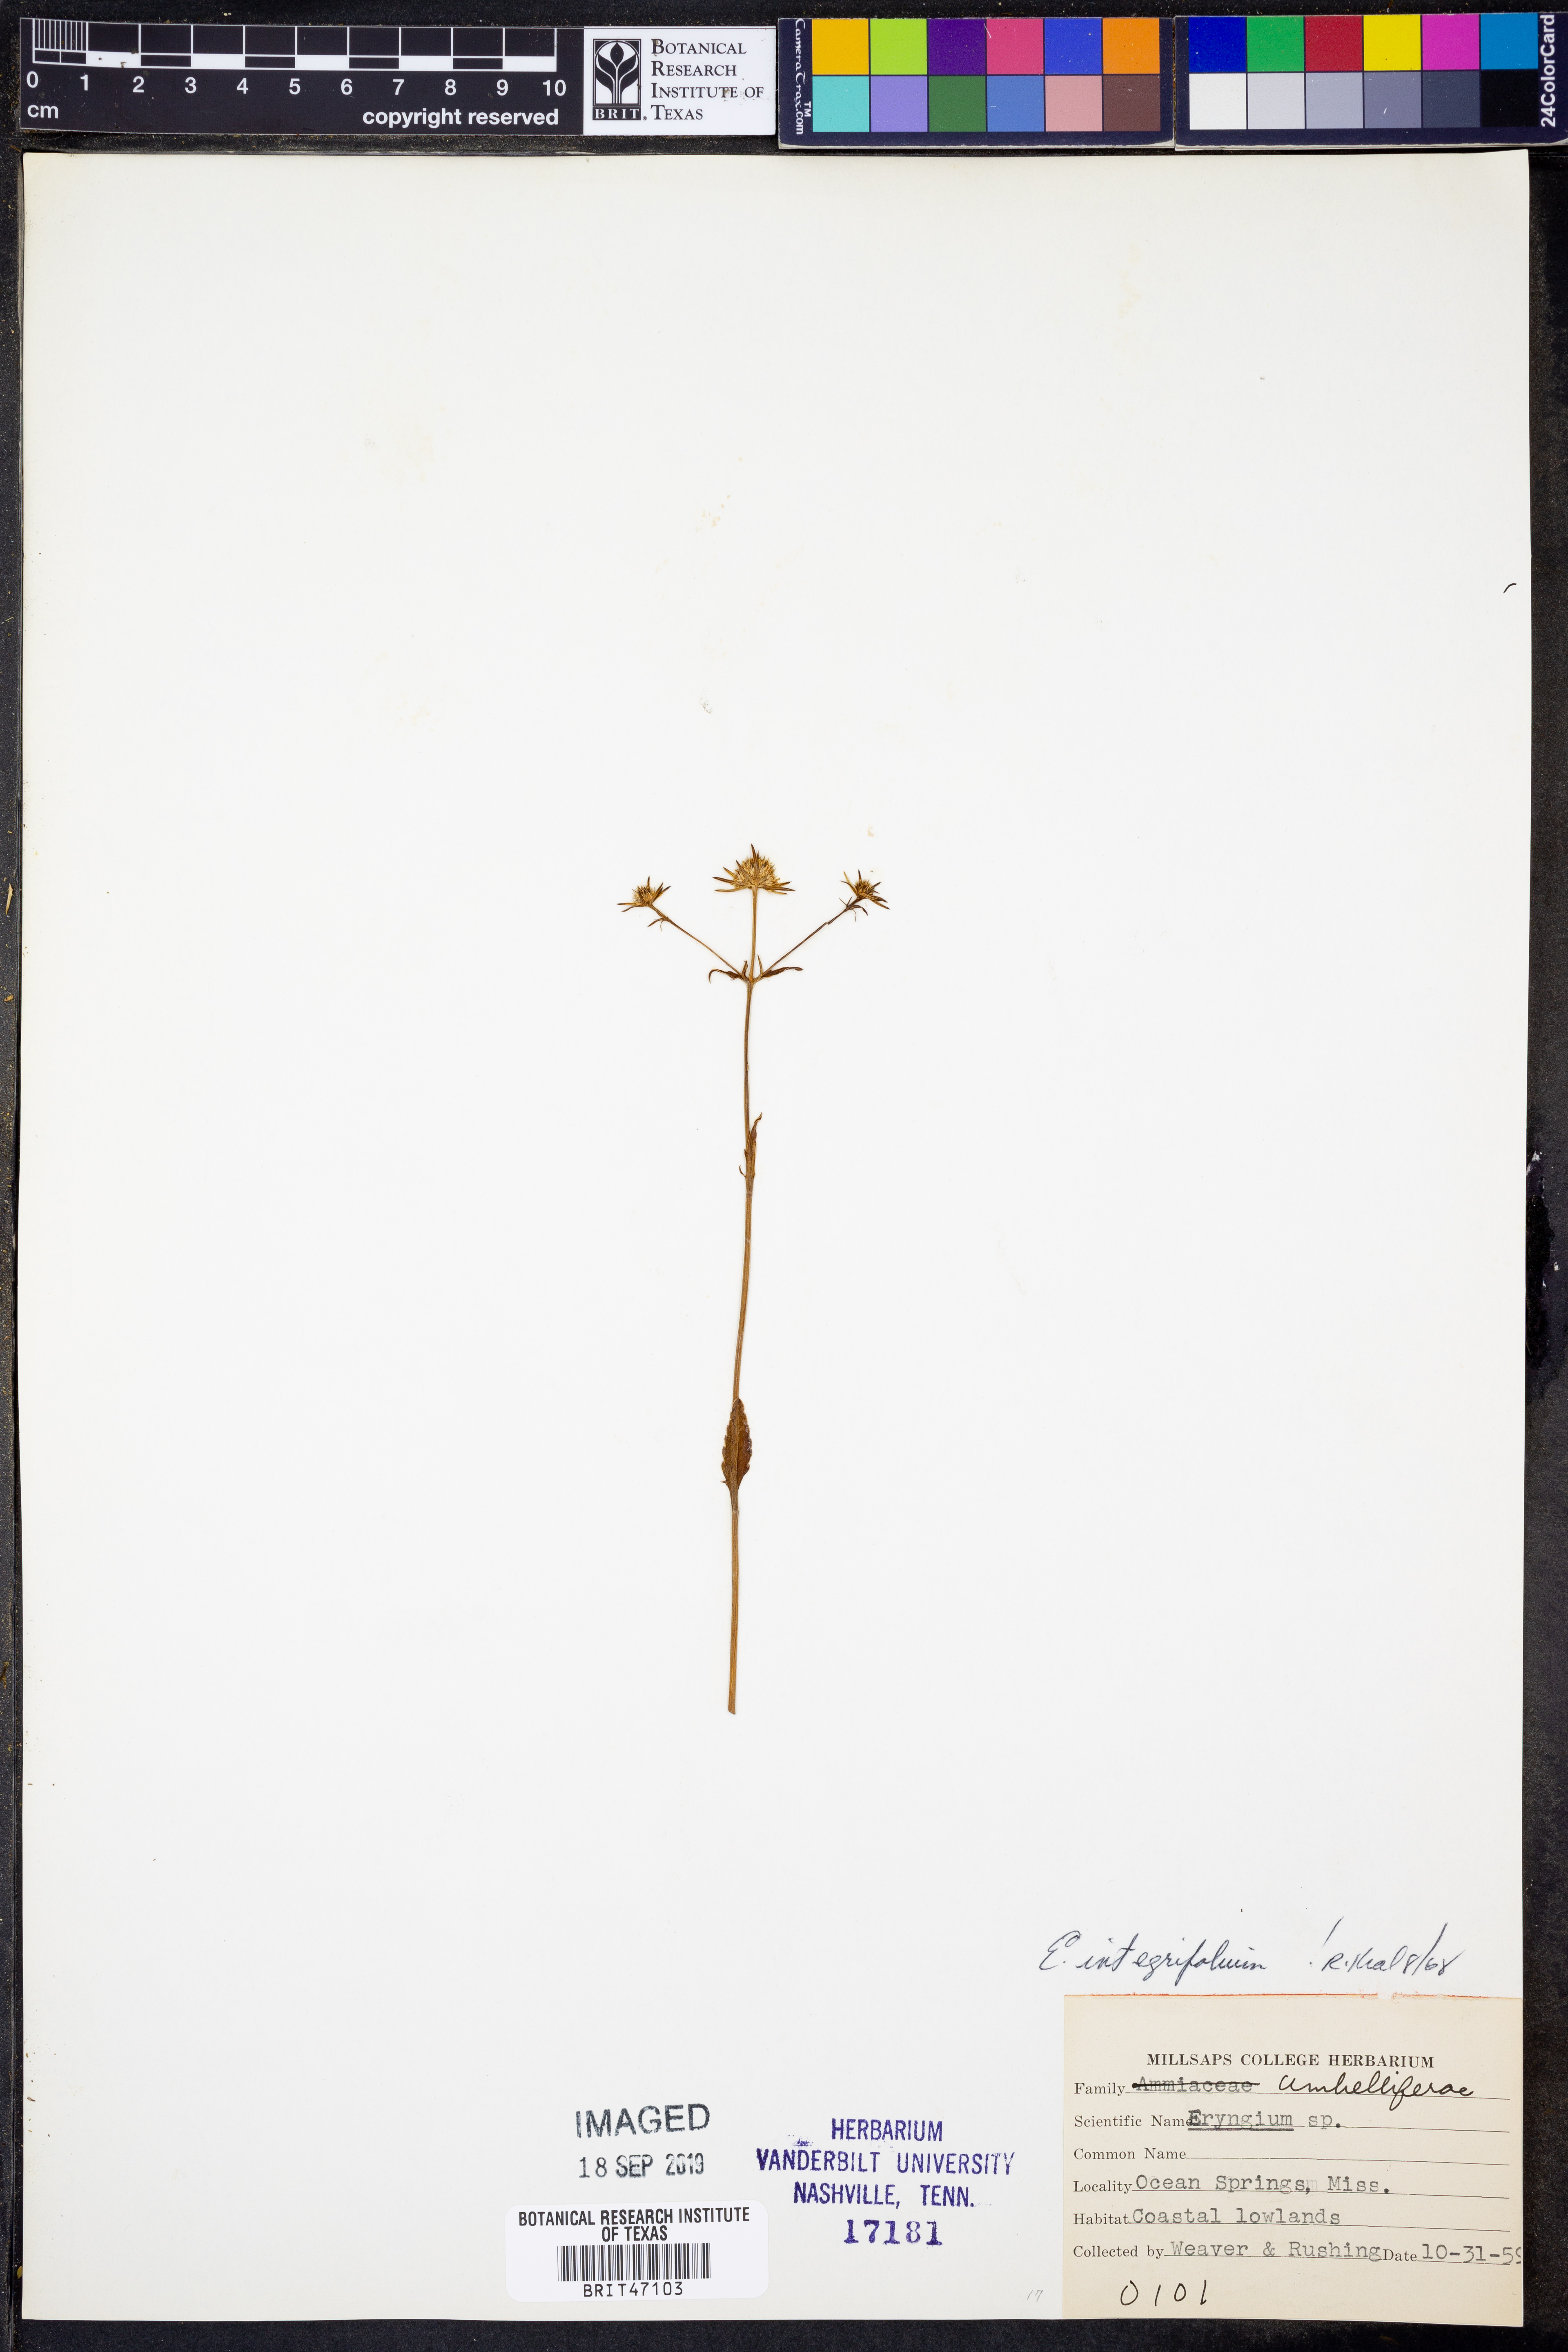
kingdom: Plantae
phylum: Tracheophyta
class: Magnoliopsida
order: Apiales
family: Apiaceae
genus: Eryngium
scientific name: Eryngium integrifolium
